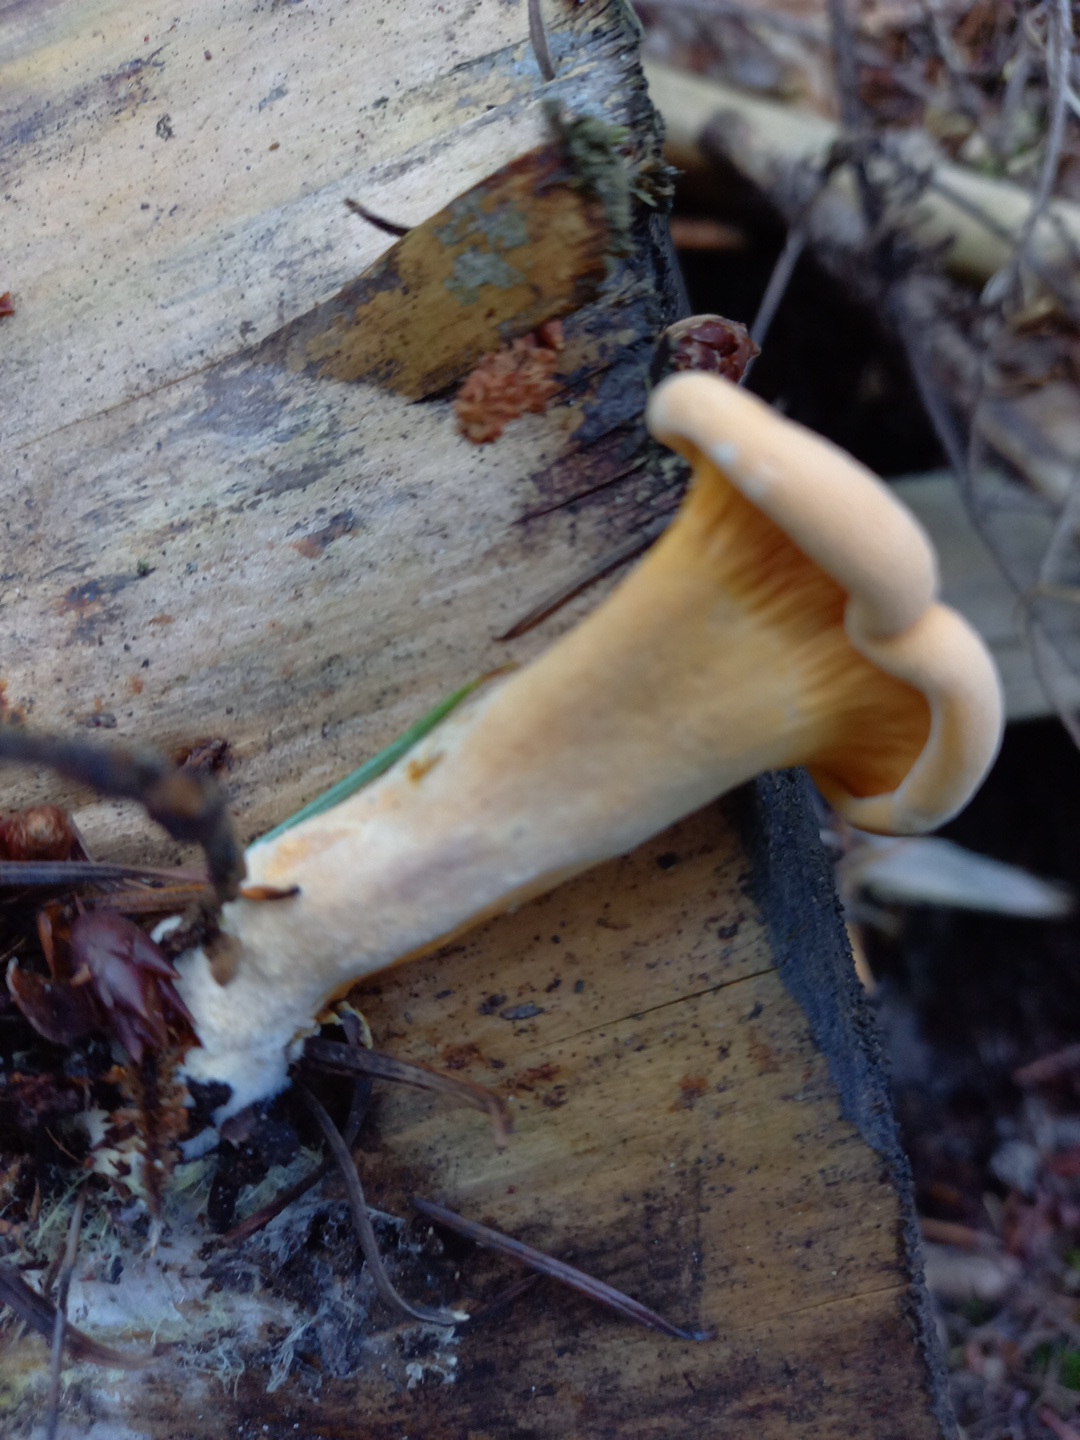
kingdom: Fungi
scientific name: Fungi
